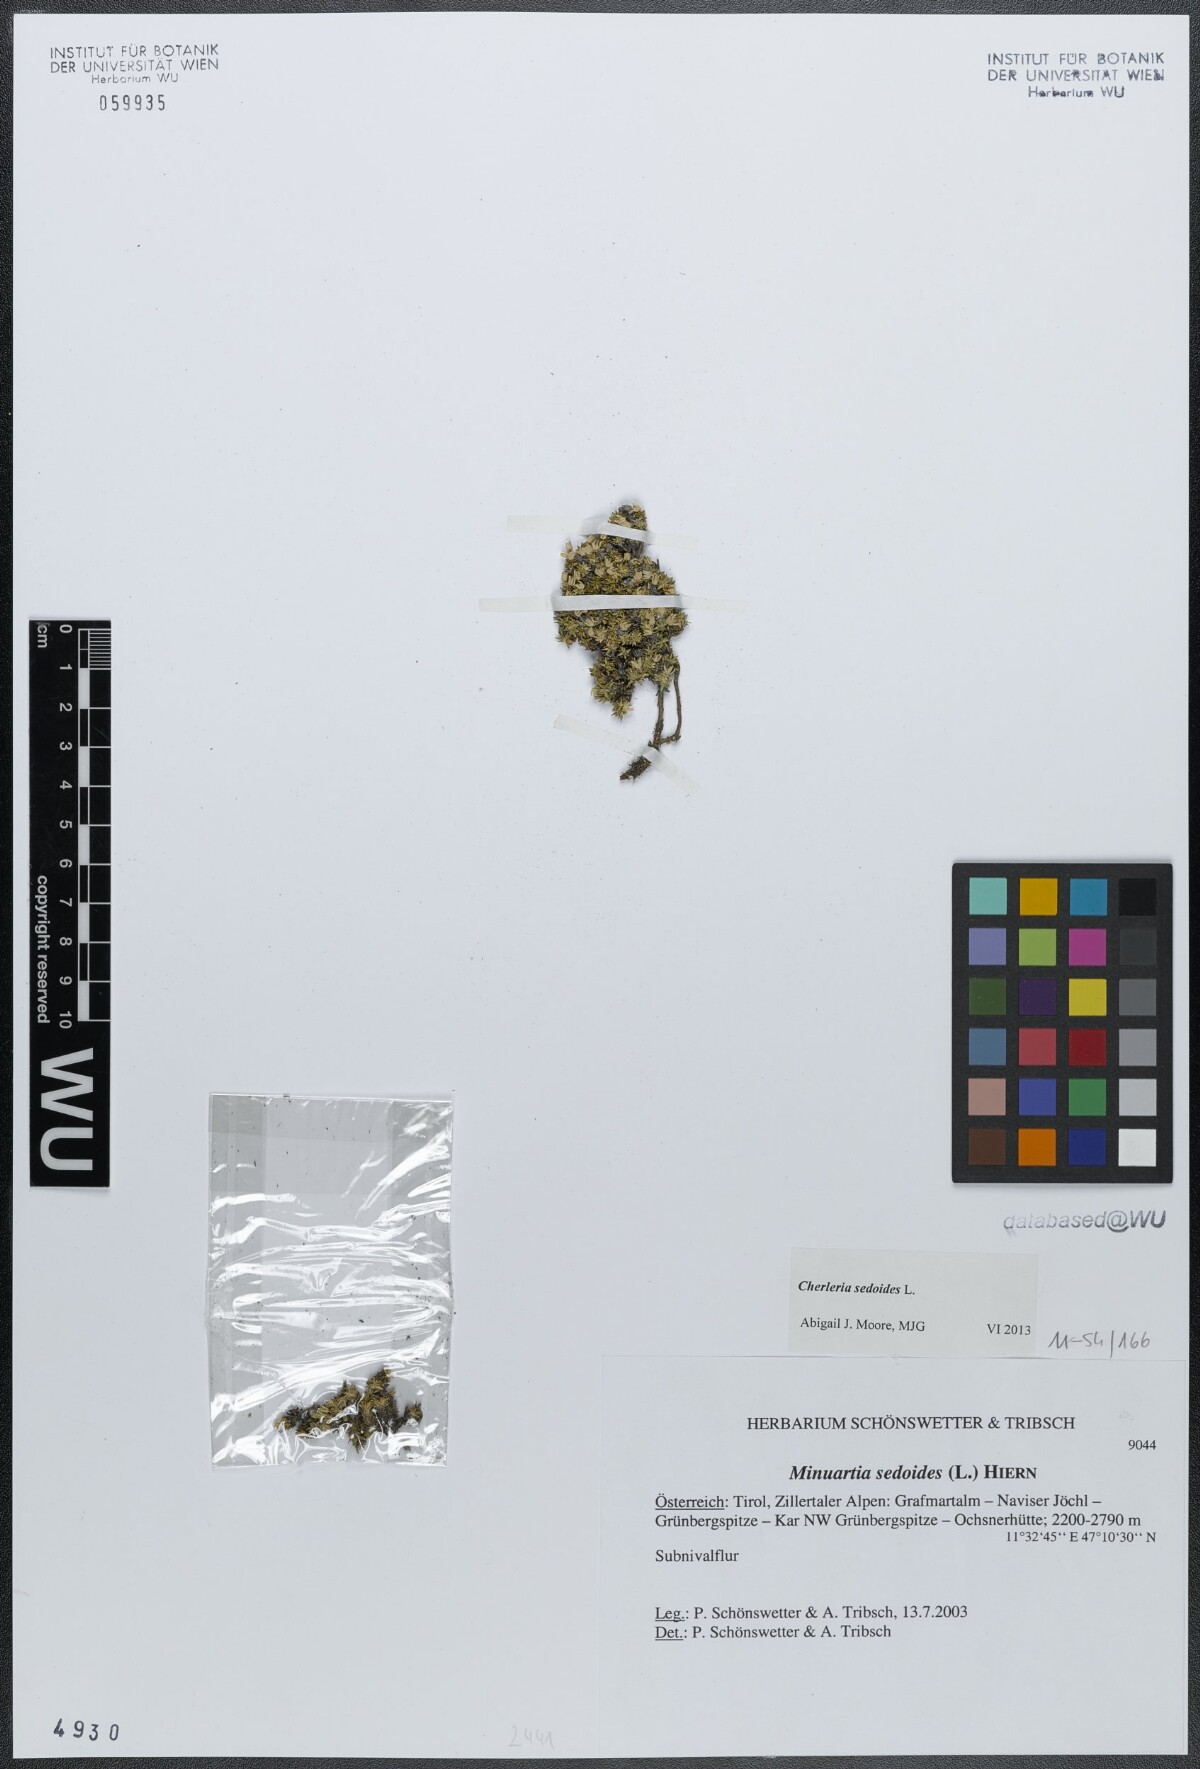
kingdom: Plantae
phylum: Tracheophyta
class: Magnoliopsida
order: Caryophyllales
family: Caryophyllaceae
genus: Cherleria
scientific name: Cherleria sedoides
